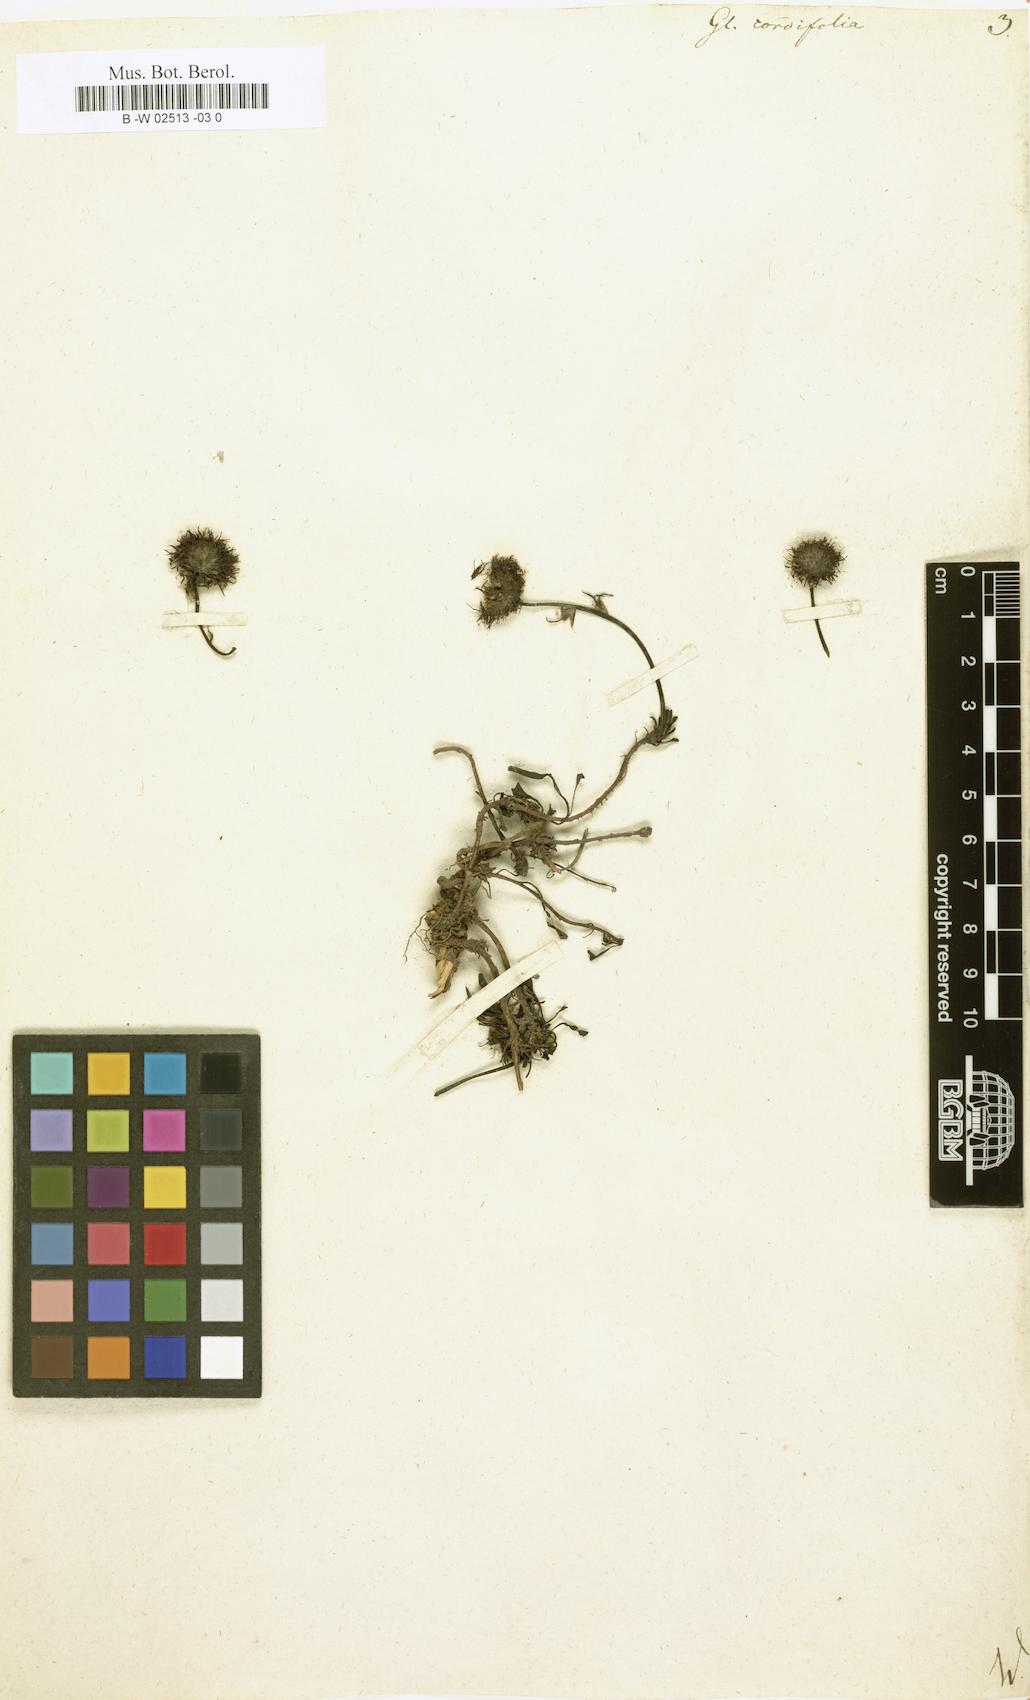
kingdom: Plantae
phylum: Tracheophyta
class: Magnoliopsida
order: Lamiales
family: Plantaginaceae
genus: Globularia
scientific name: Globularia cordifolia
